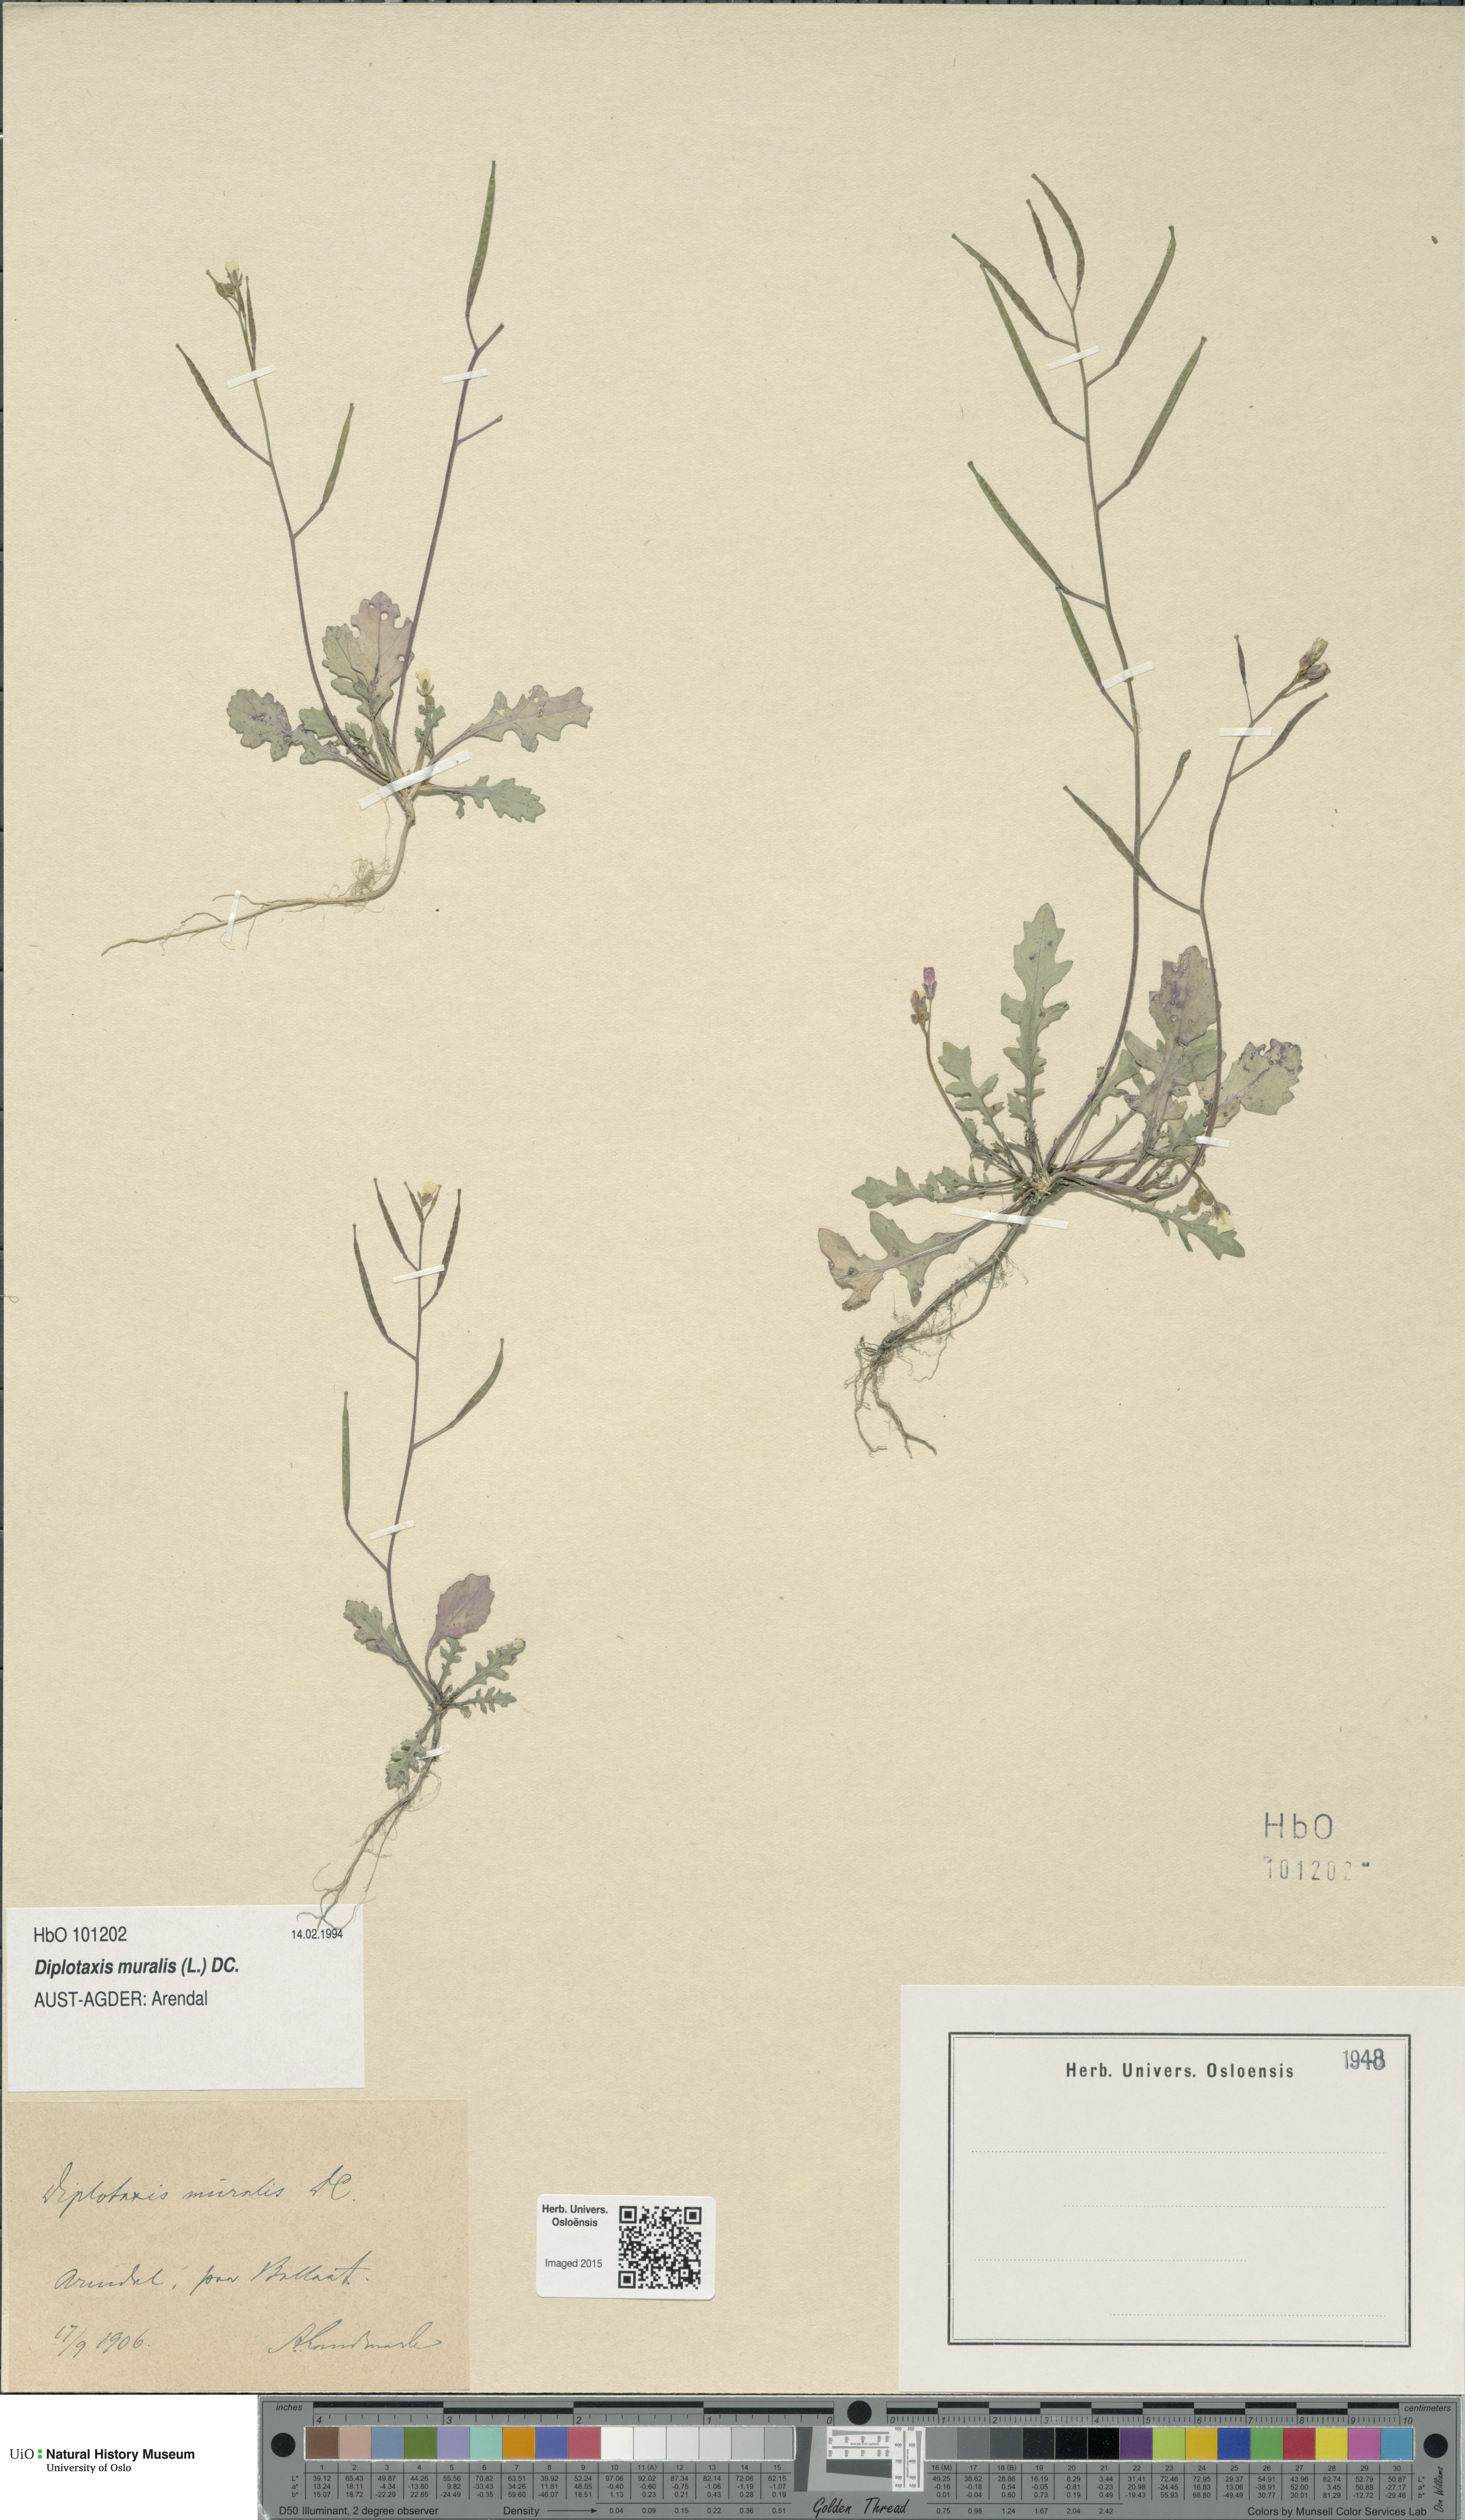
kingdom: Plantae
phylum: Tracheophyta
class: Magnoliopsida
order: Brassicales
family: Brassicaceae
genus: Diplotaxis
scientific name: Diplotaxis muralis
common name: Annual wall-rocket
